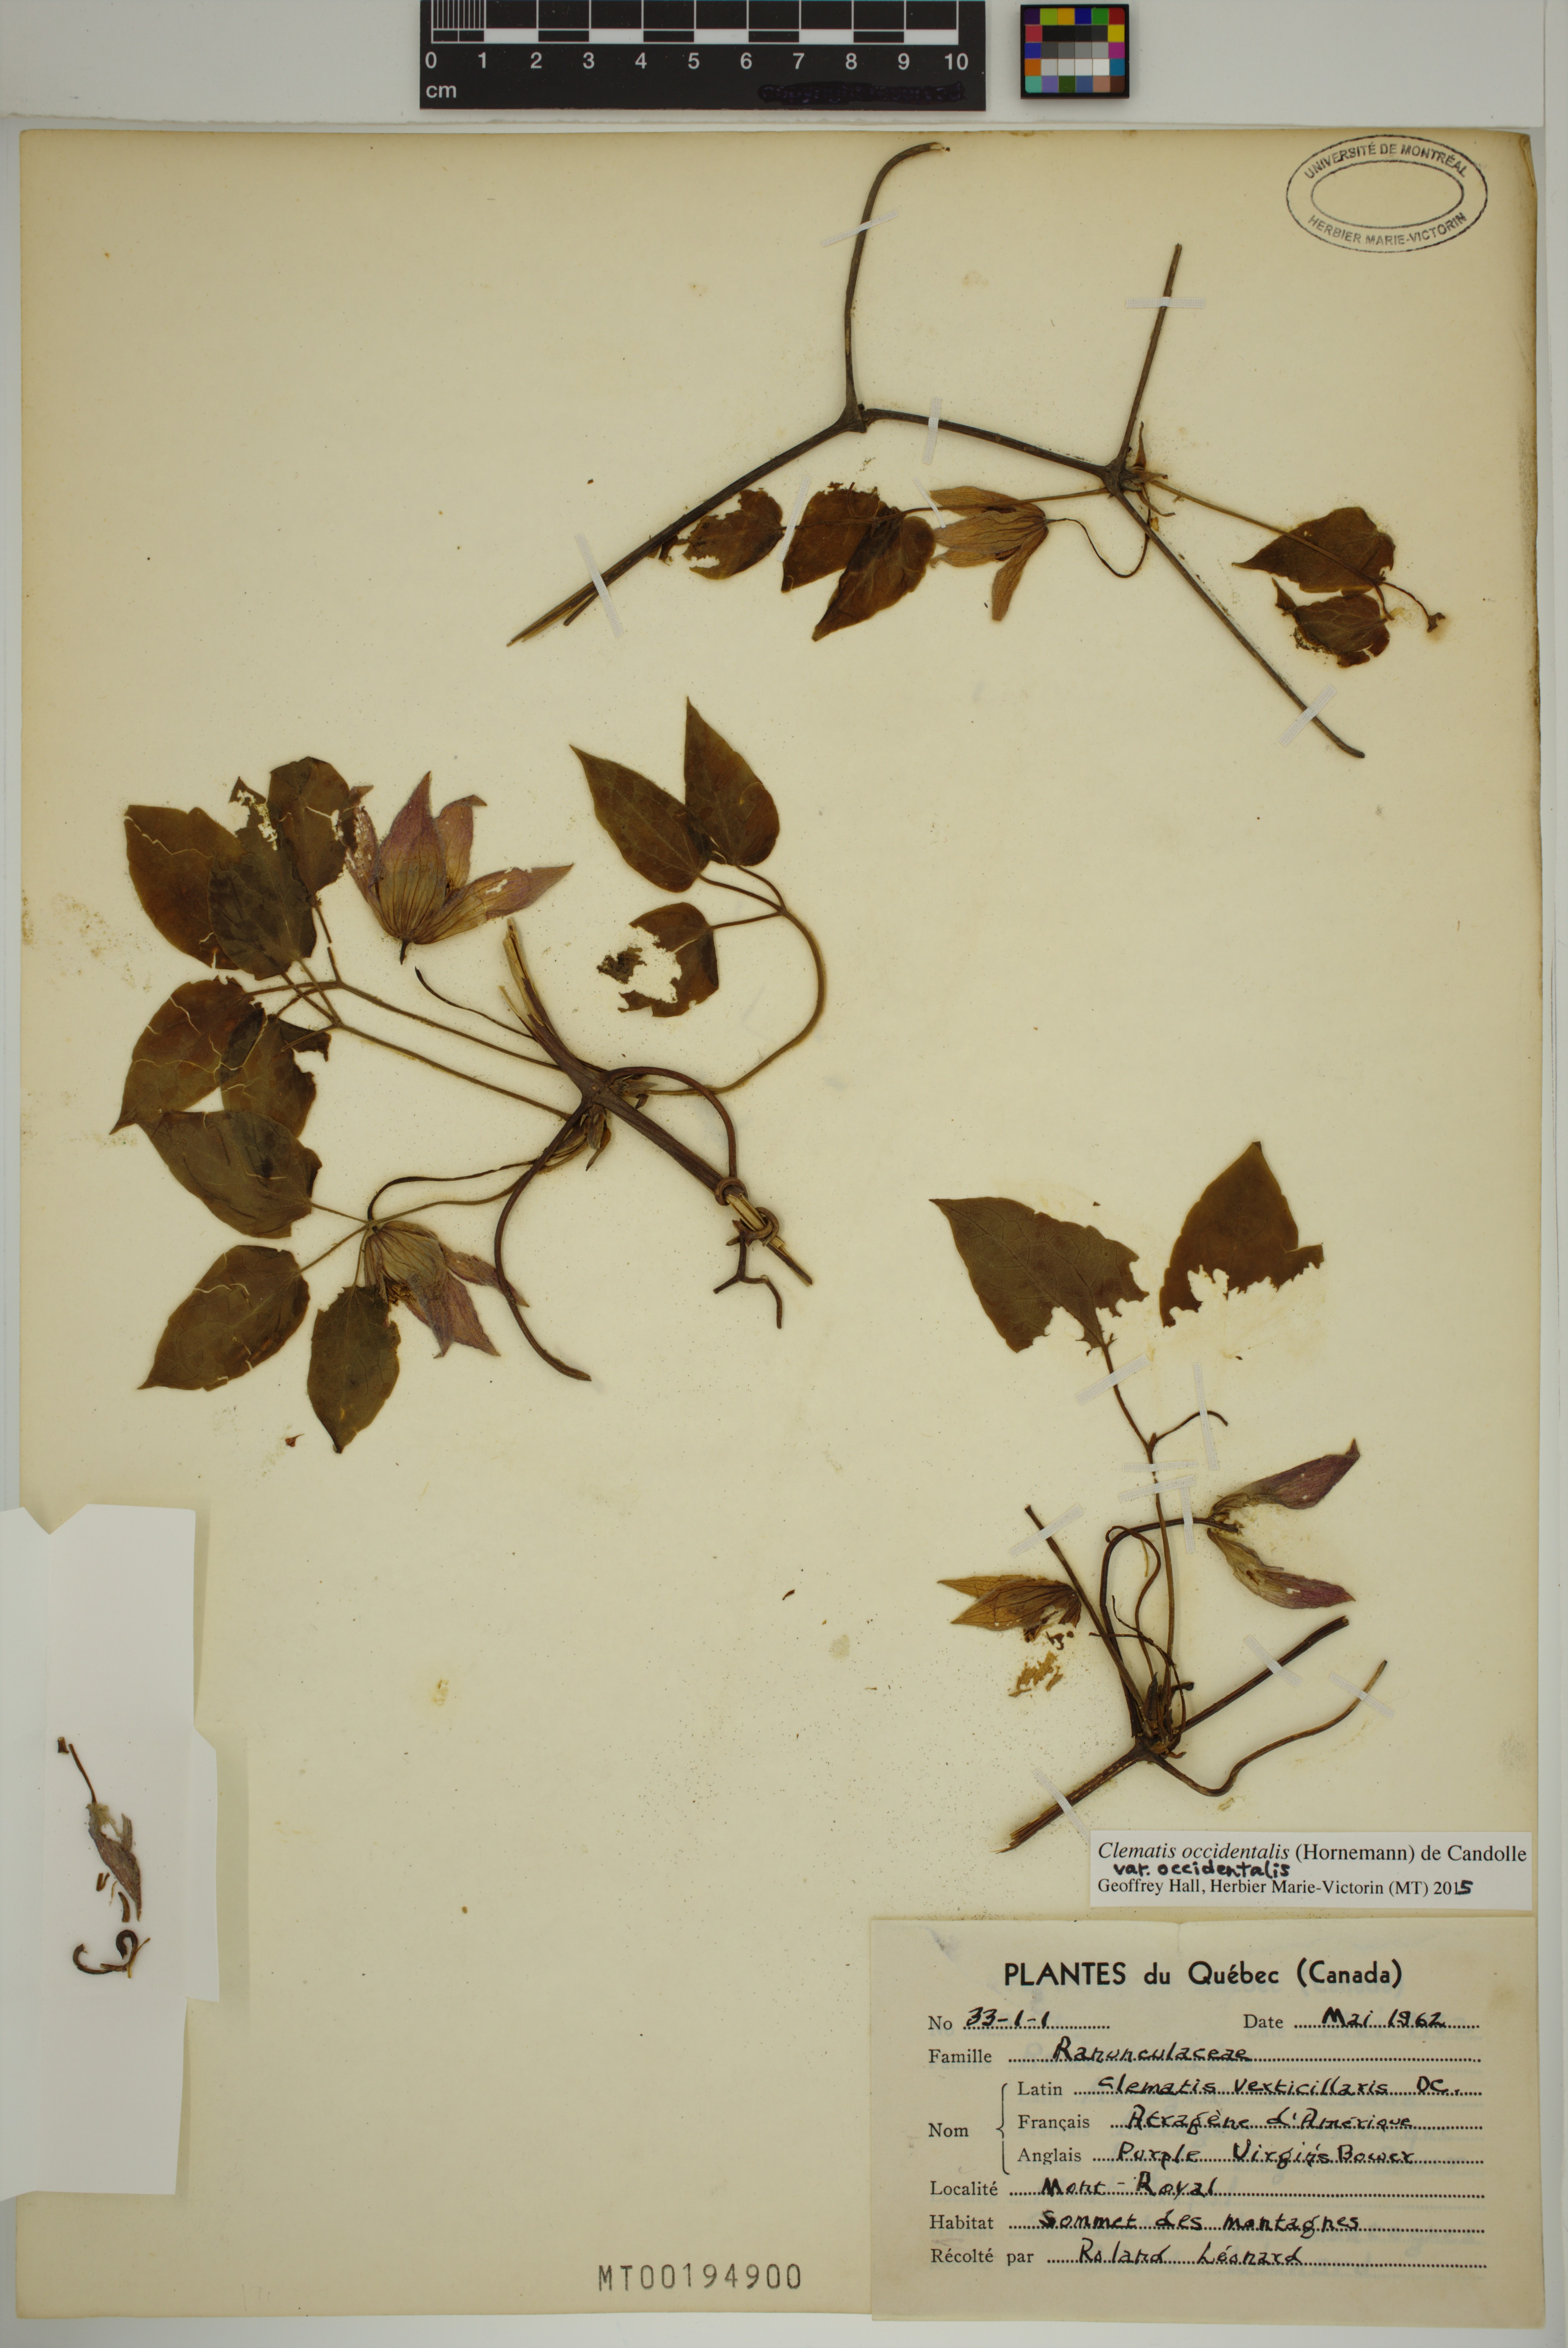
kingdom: Plantae
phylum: Tracheophyta
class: Magnoliopsida
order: Ranunculales
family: Ranunculaceae
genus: Clematis
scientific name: Clematis occidentalis
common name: Purple clematis
